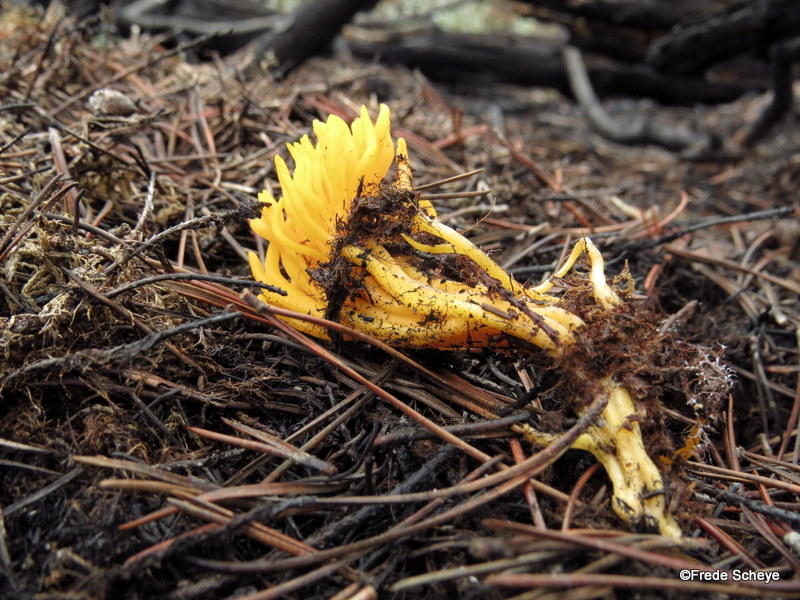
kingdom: Fungi
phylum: Basidiomycota
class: Dacrymycetes
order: Dacrymycetales
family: Dacrymycetaceae
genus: Calocera
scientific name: Calocera viscosa
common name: almindelig guldgaffel
